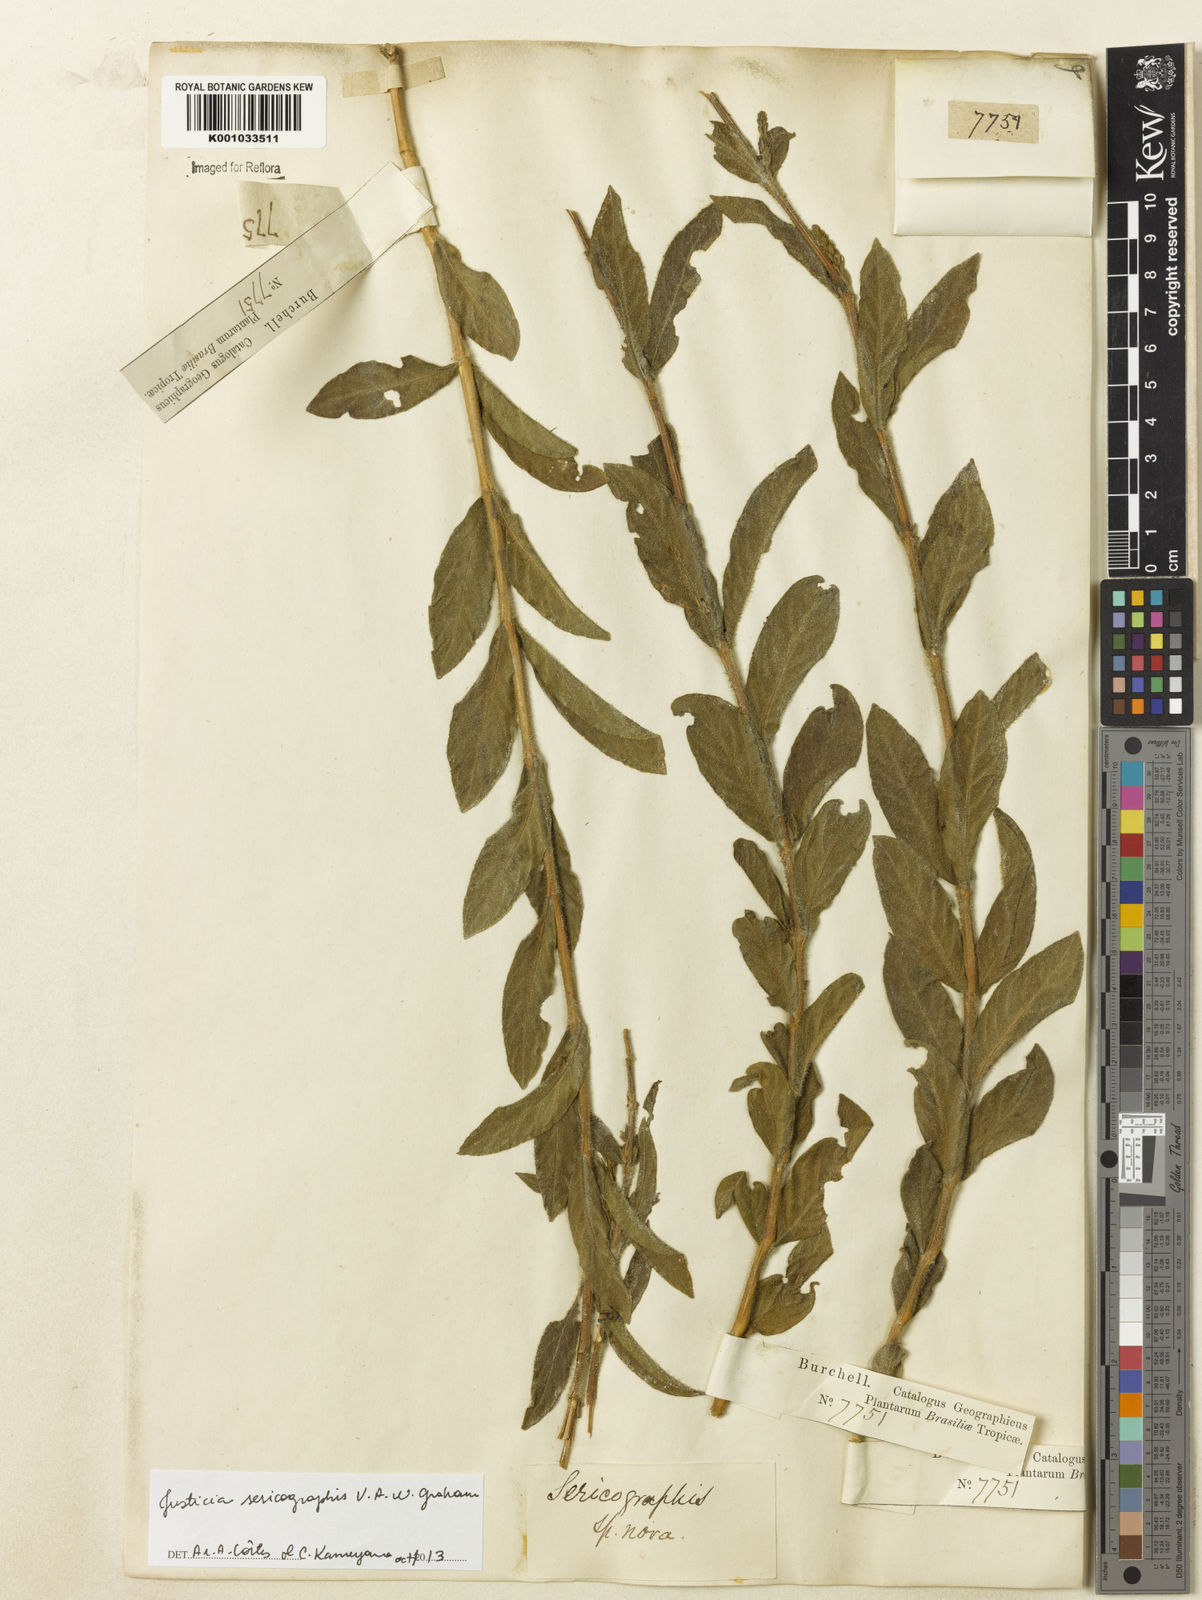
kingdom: Plantae
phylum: Tracheophyta
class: Magnoliopsida
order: Lamiales
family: Acanthaceae
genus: Dianthera
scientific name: Dianthera rigida
